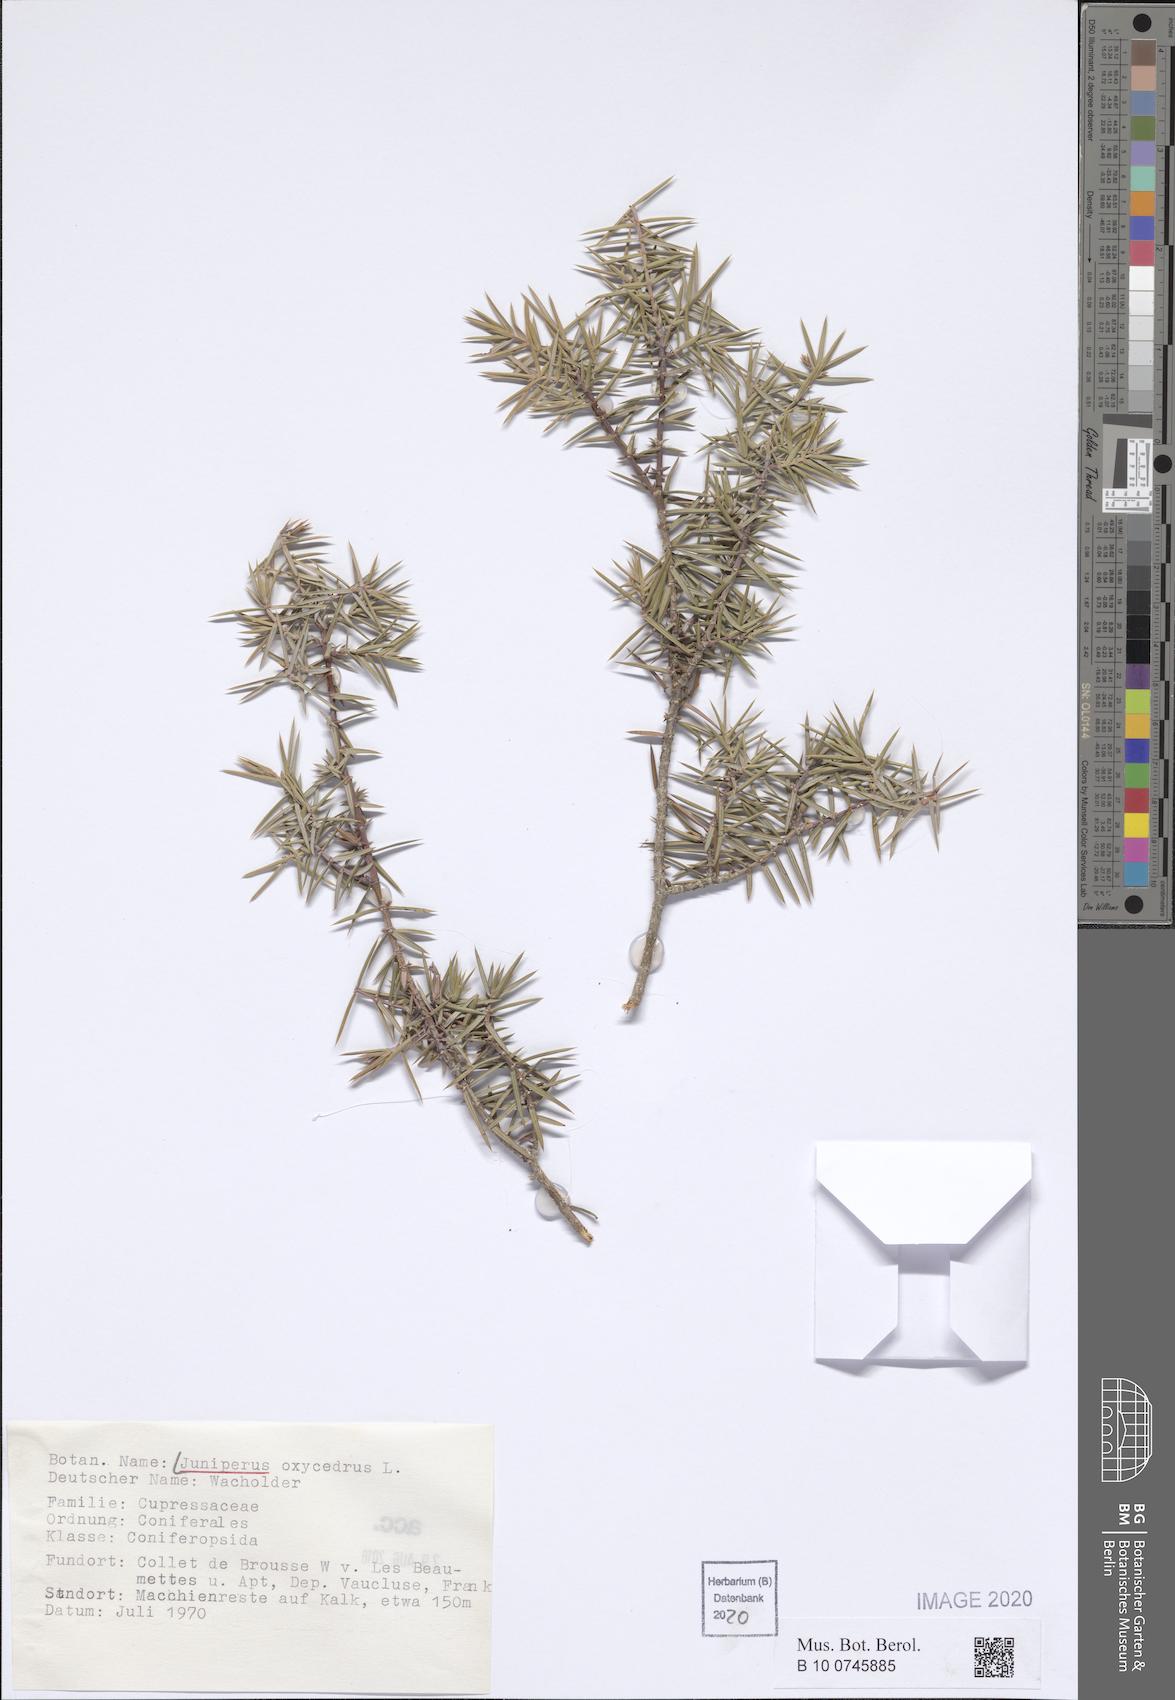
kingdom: Plantae
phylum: Tracheophyta
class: Pinopsida
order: Pinales
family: Cupressaceae
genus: Juniperus
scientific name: Juniperus oxycedrus
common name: Prickly juniper
